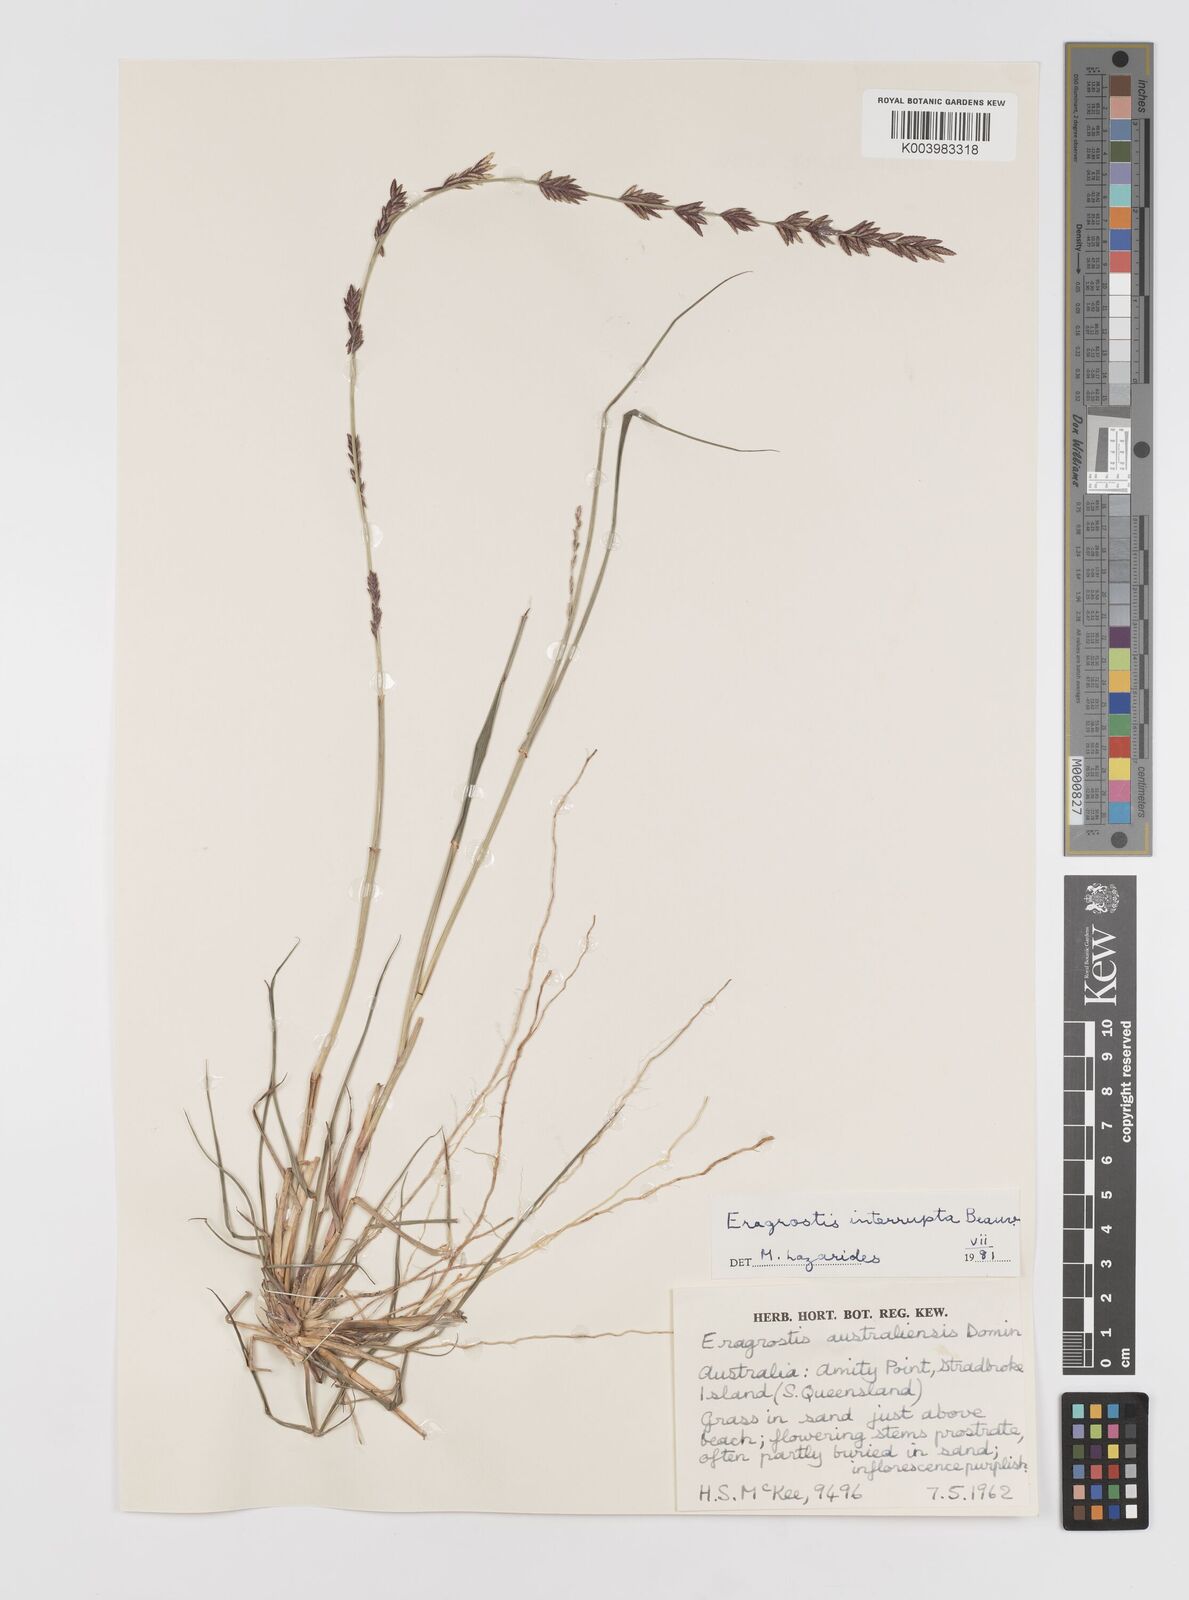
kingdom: Plantae
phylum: Tracheophyta
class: Liliopsida
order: Poales
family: Poaceae
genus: Eragrostis
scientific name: Eragrostis interrupta
